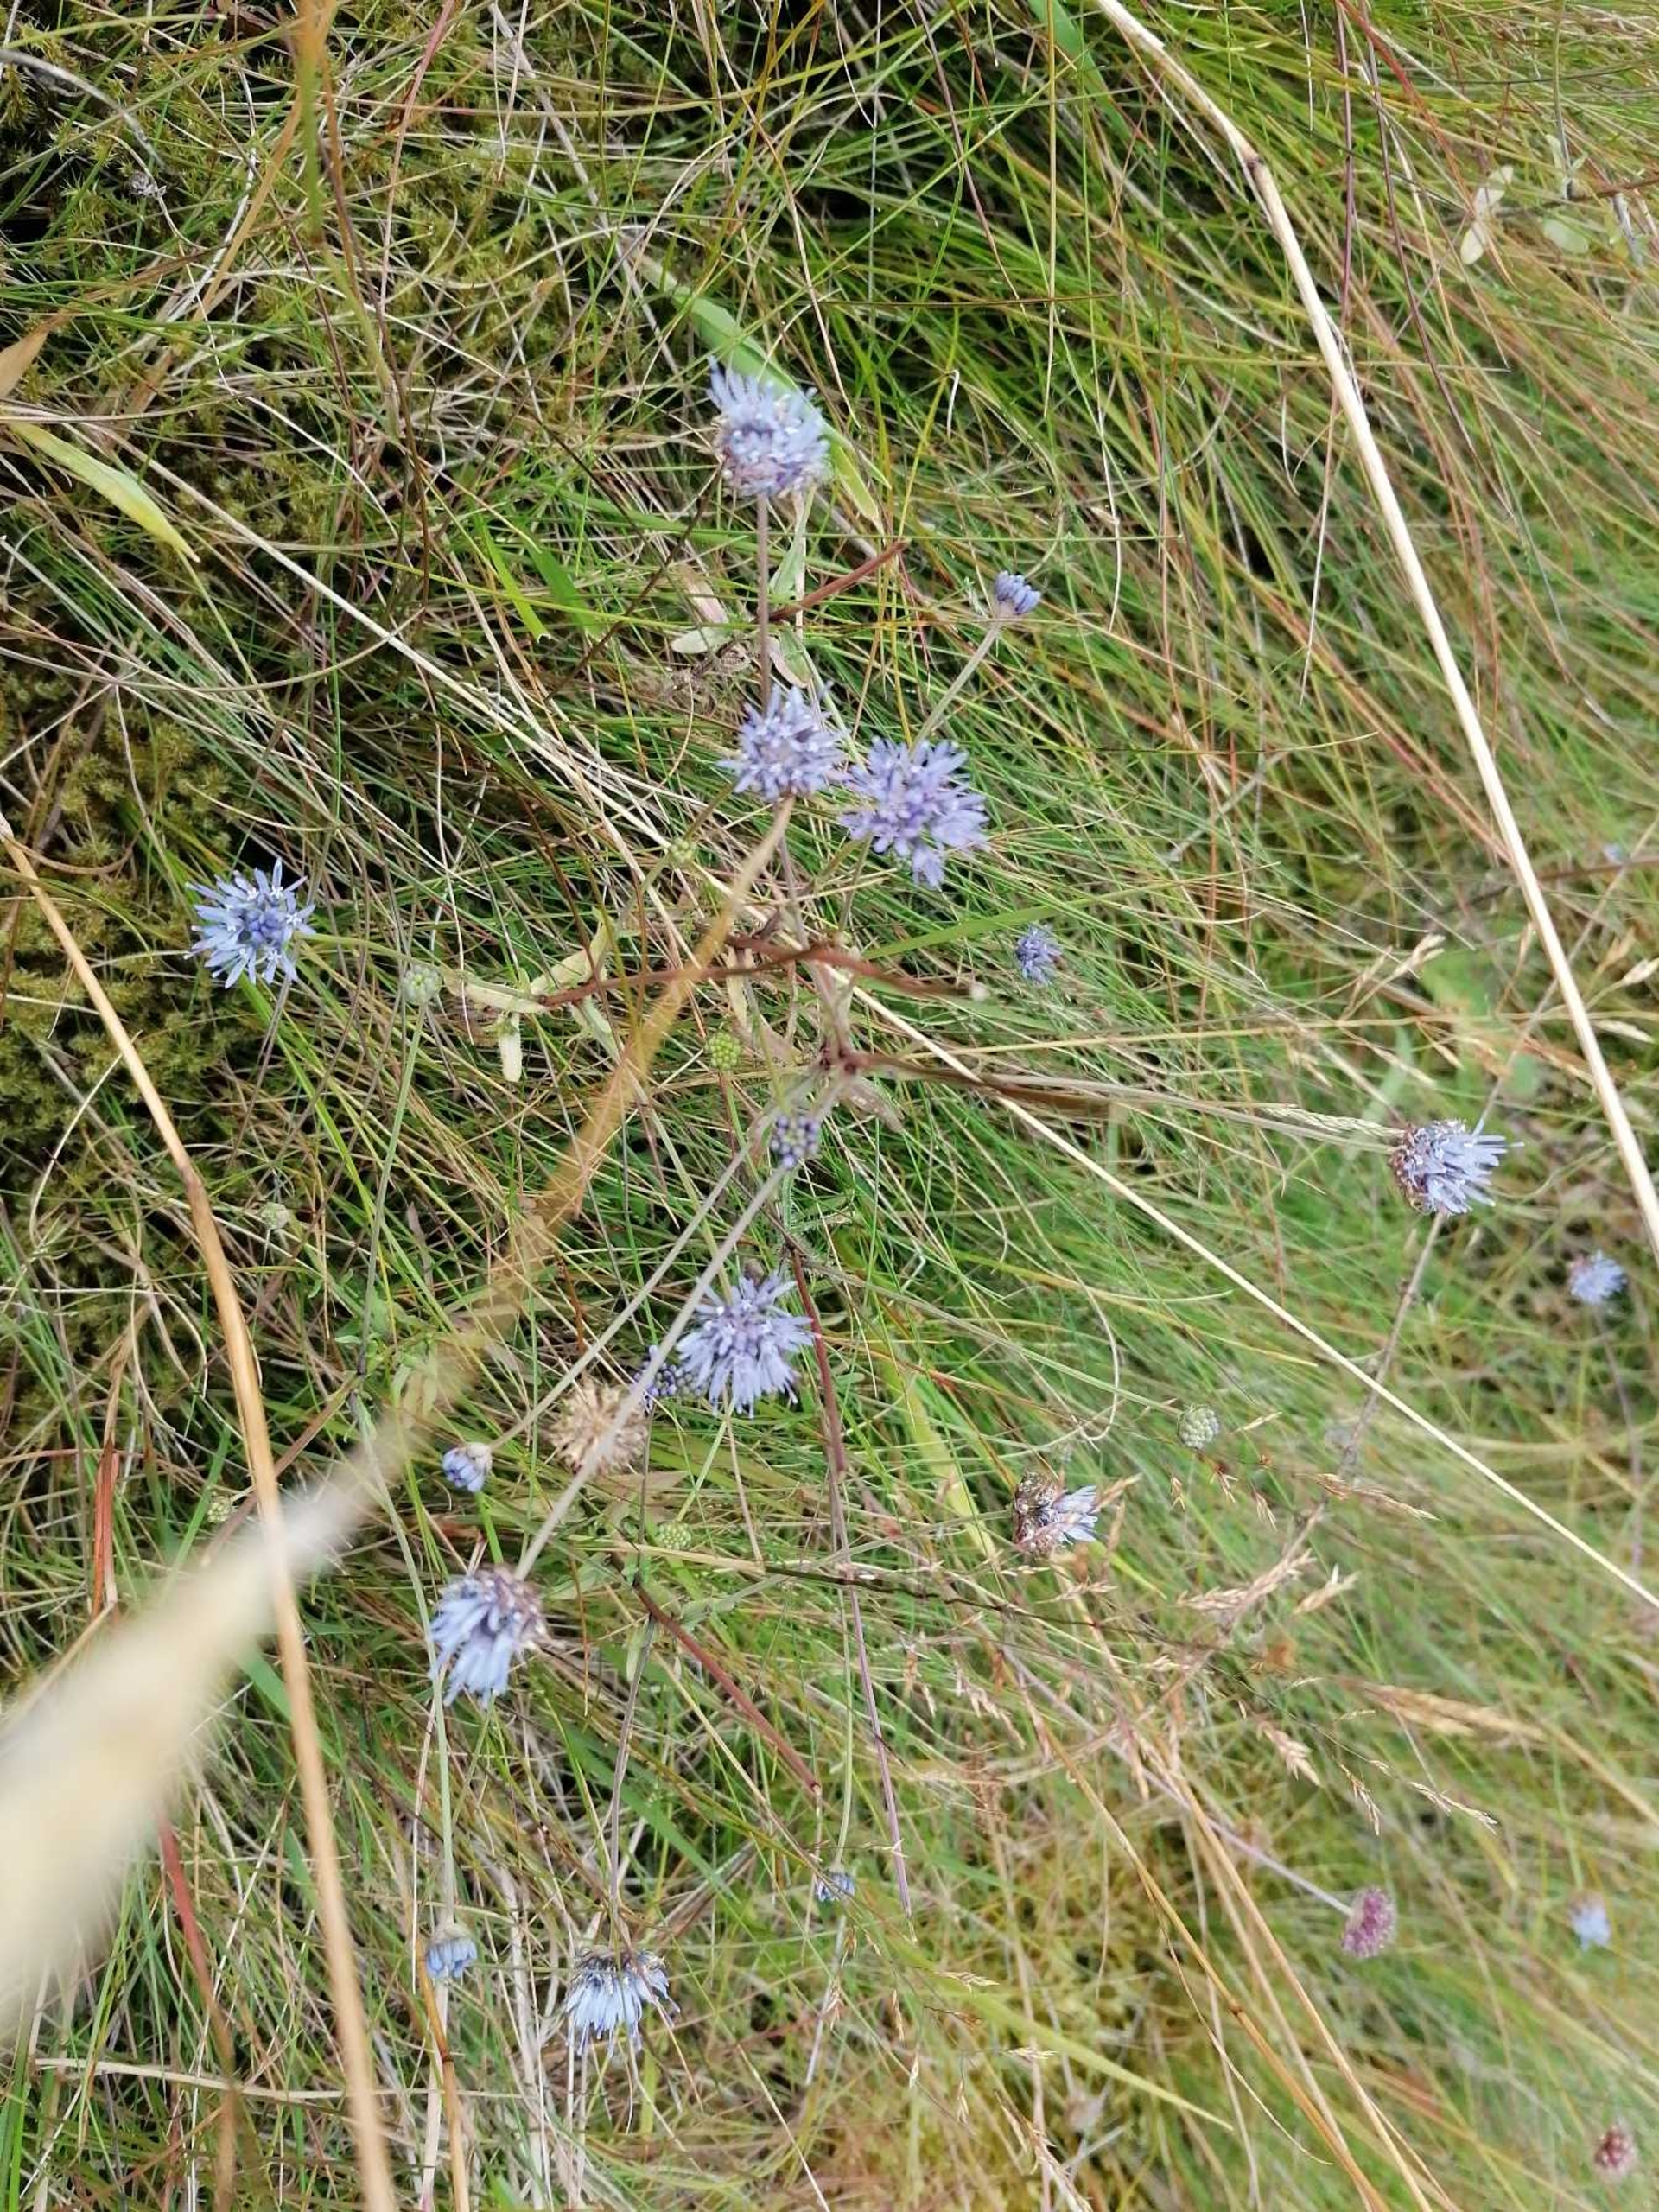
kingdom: Plantae
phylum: Tracheophyta
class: Magnoliopsida
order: Asterales
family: Campanulaceae
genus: Jasione
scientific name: Jasione montana
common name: Blåmunke
